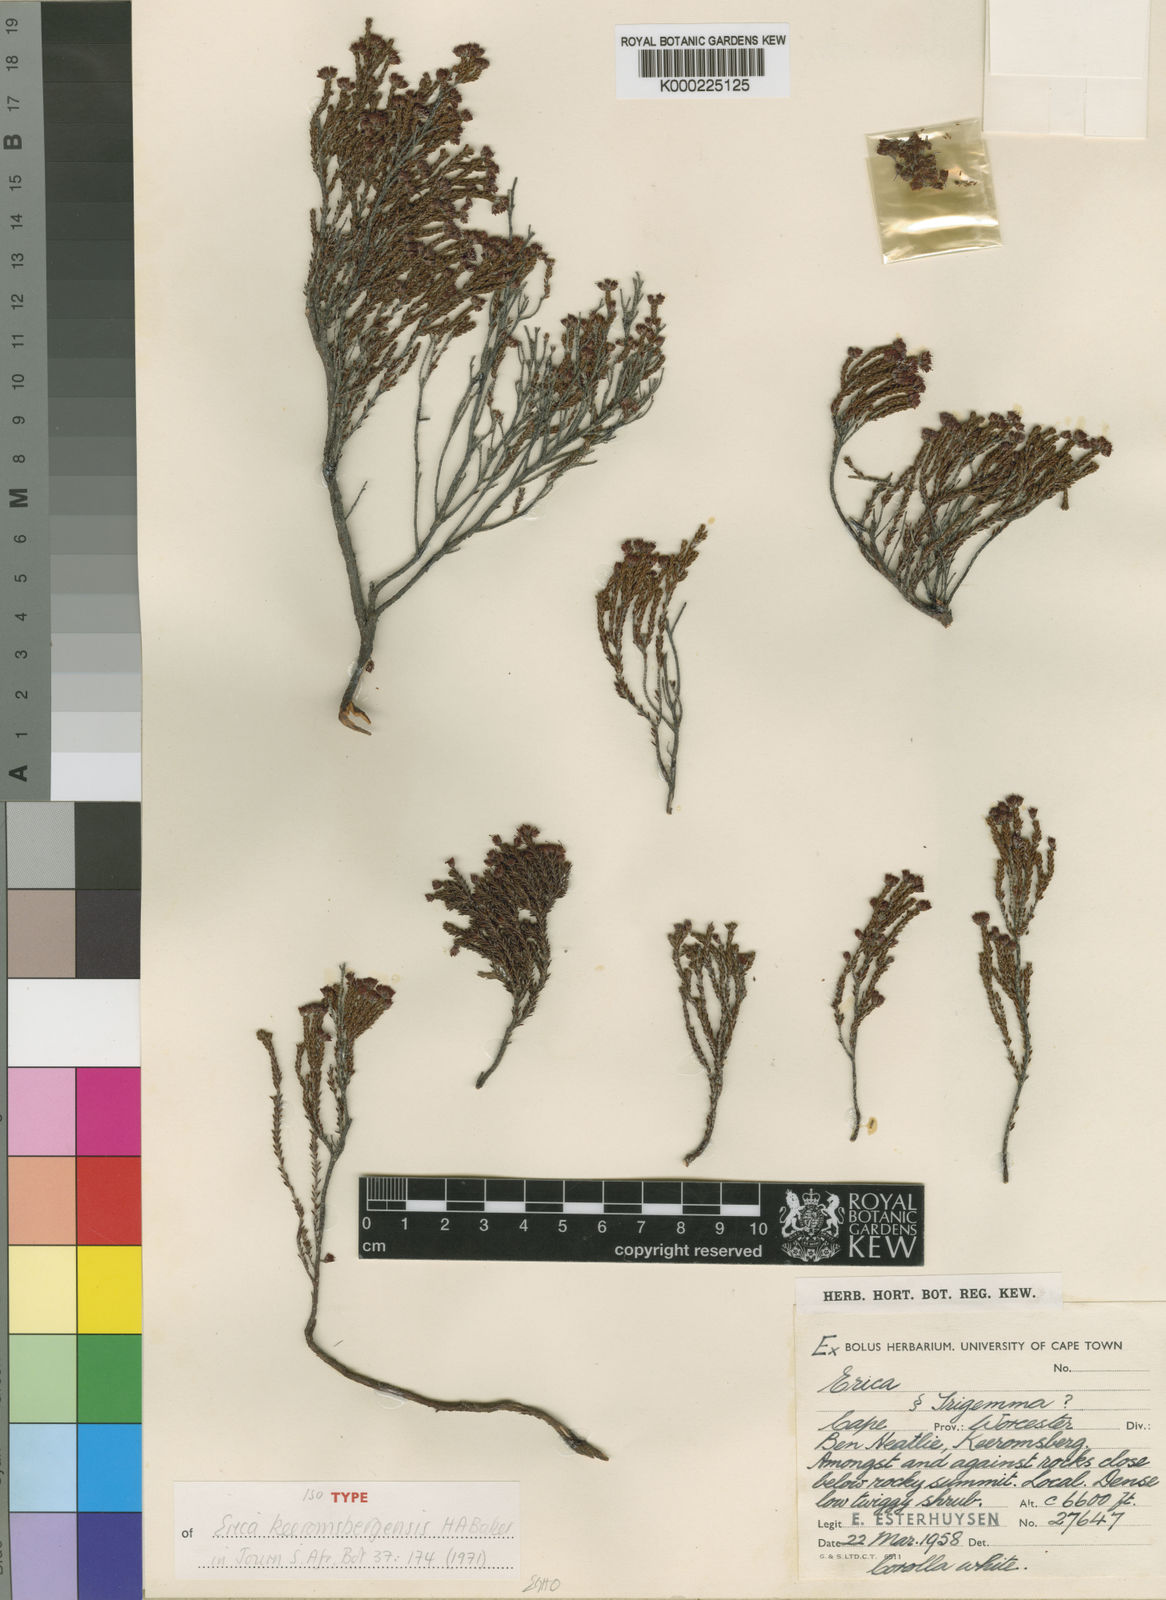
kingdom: Plantae
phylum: Tracheophyta
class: Magnoliopsida
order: Ericales
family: Ericaceae
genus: Erica
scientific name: Erica keeromsbergensis
